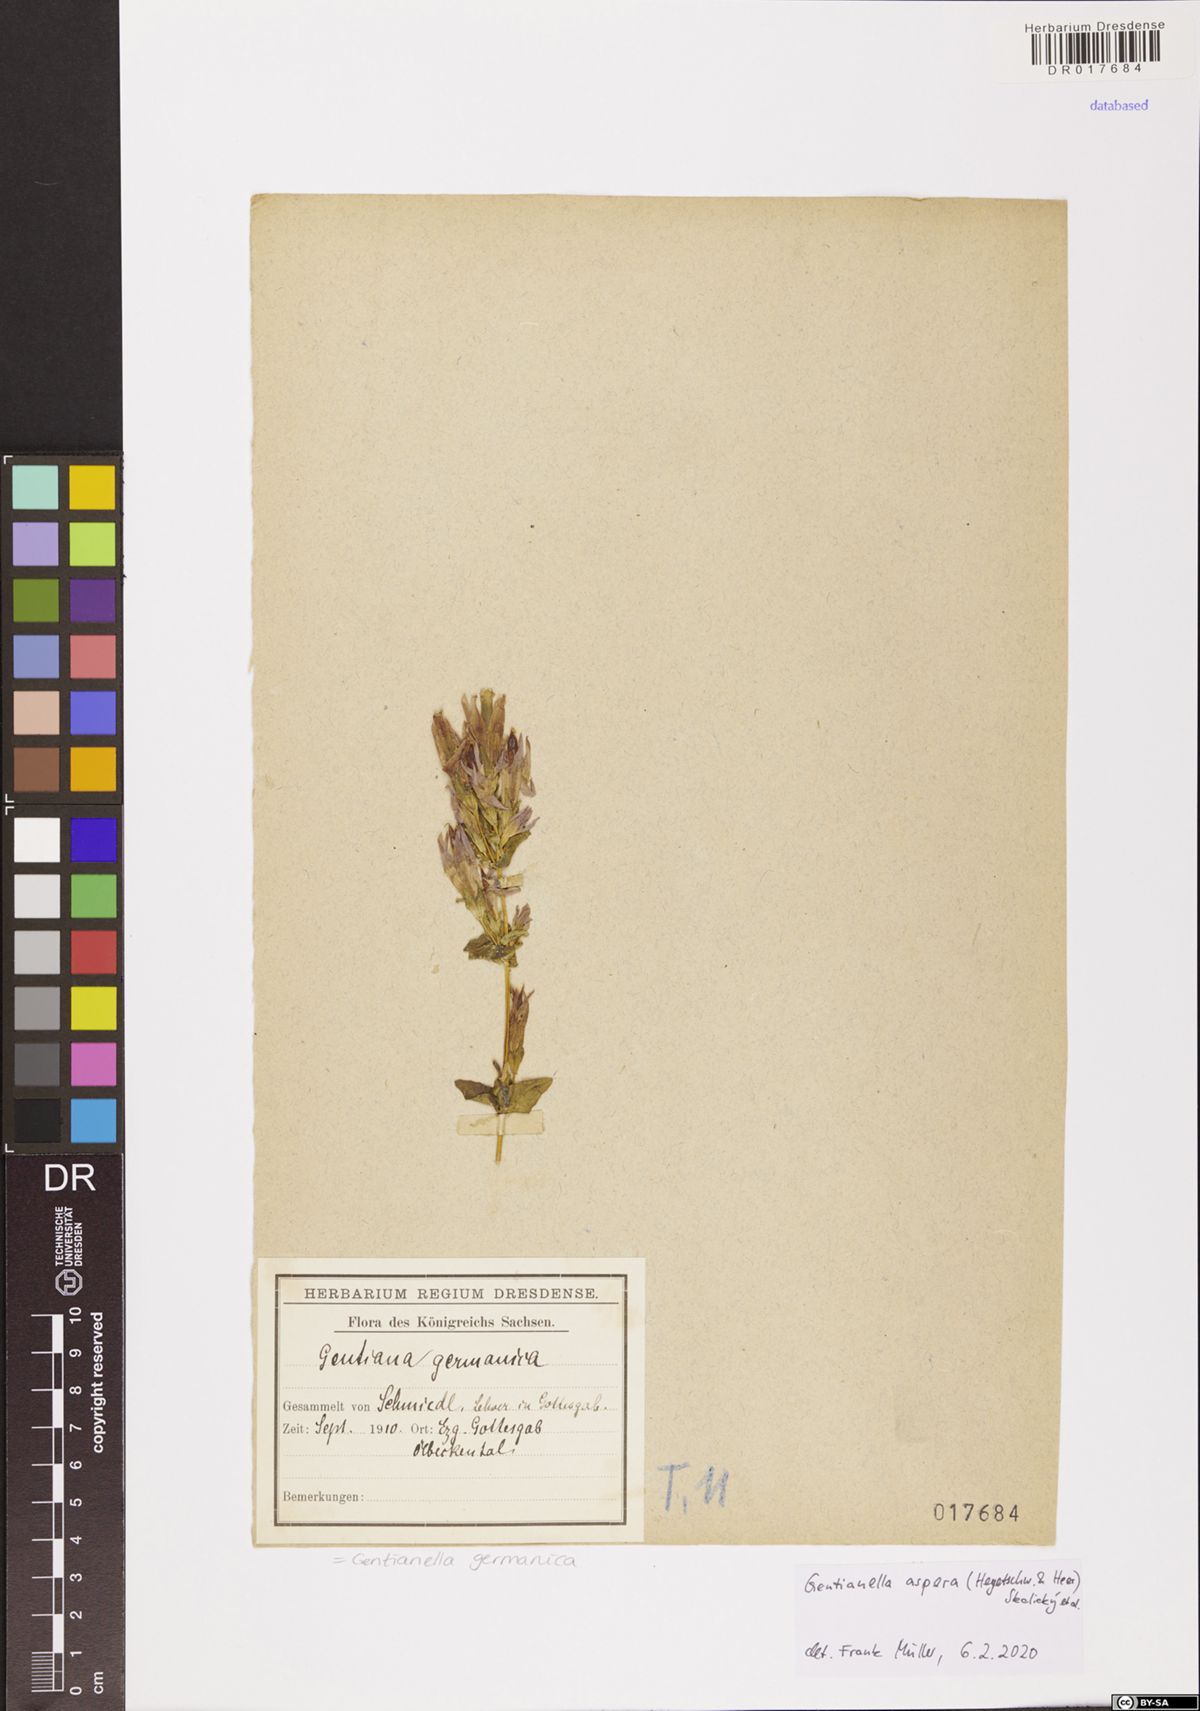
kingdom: Plantae
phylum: Tracheophyta
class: Magnoliopsida
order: Gentianales
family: Gentianaceae
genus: Gentianella
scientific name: Gentianella obtusifolia
